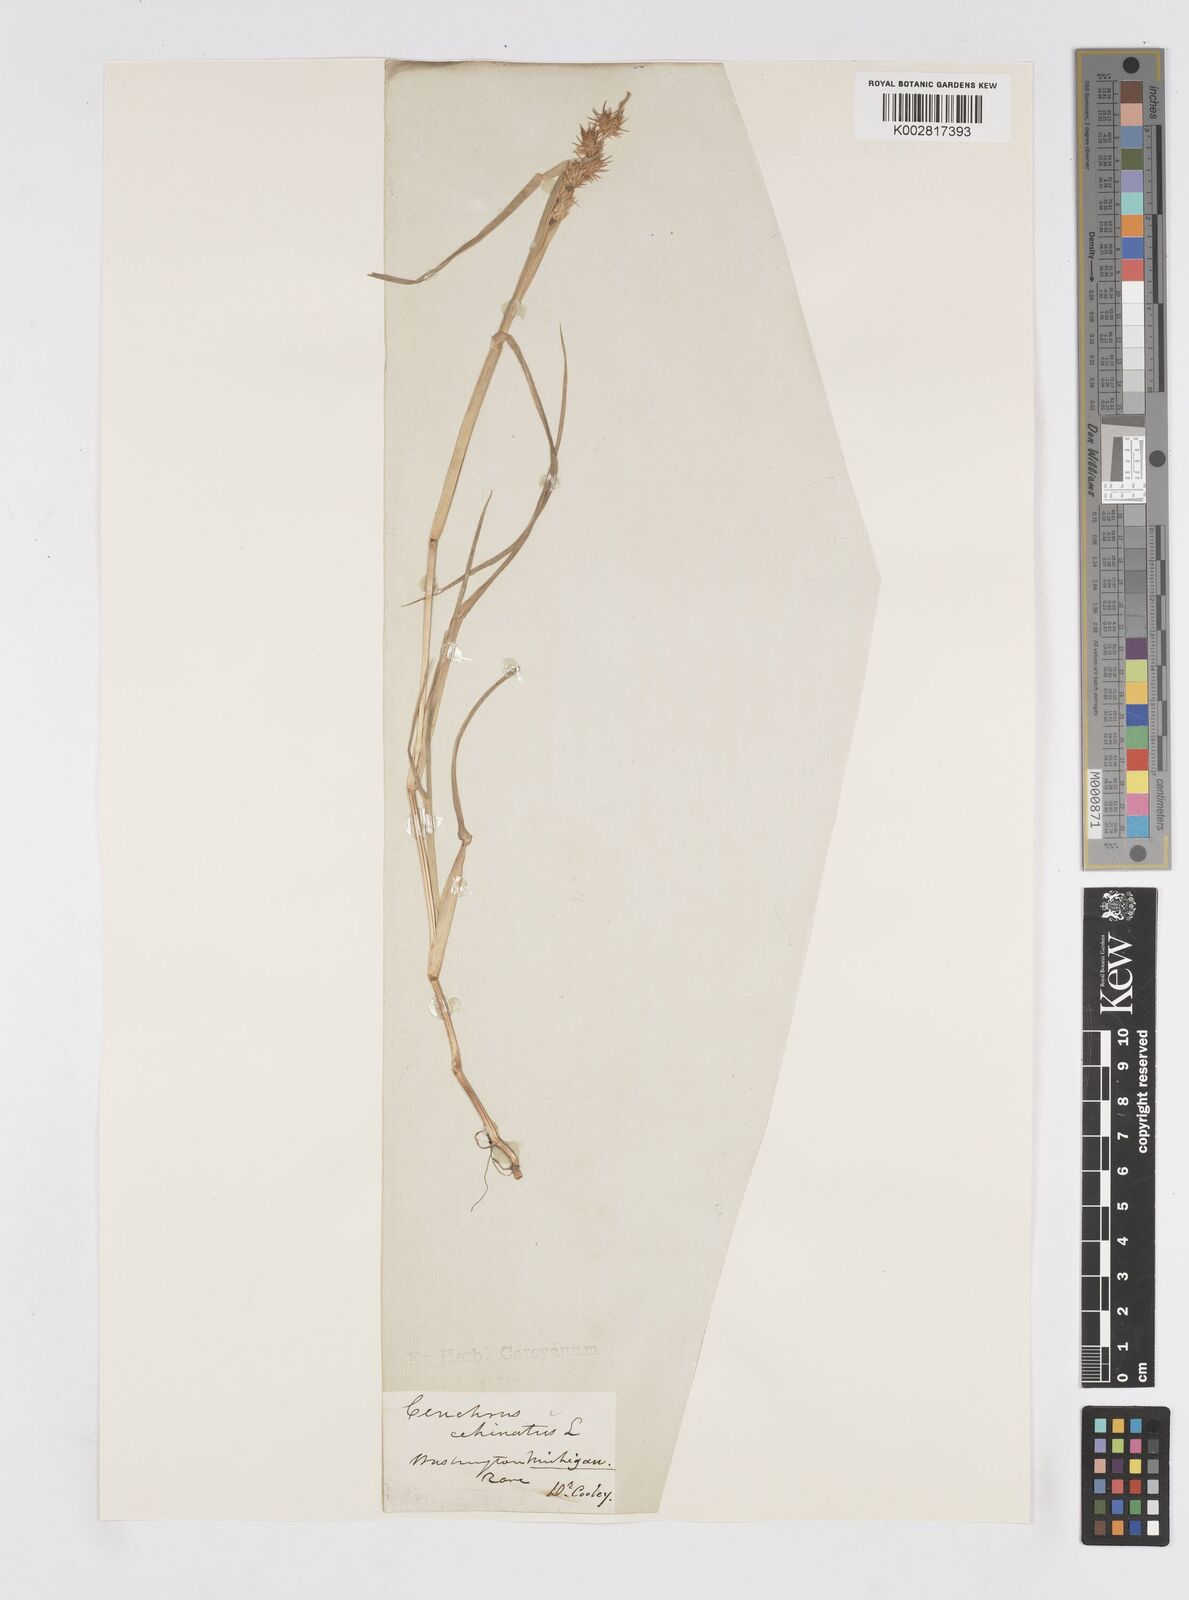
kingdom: Plantae
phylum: Tracheophyta
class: Liliopsida
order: Poales
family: Poaceae
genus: Cenchrus
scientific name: Cenchrus longispinus
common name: Mat sandbur
